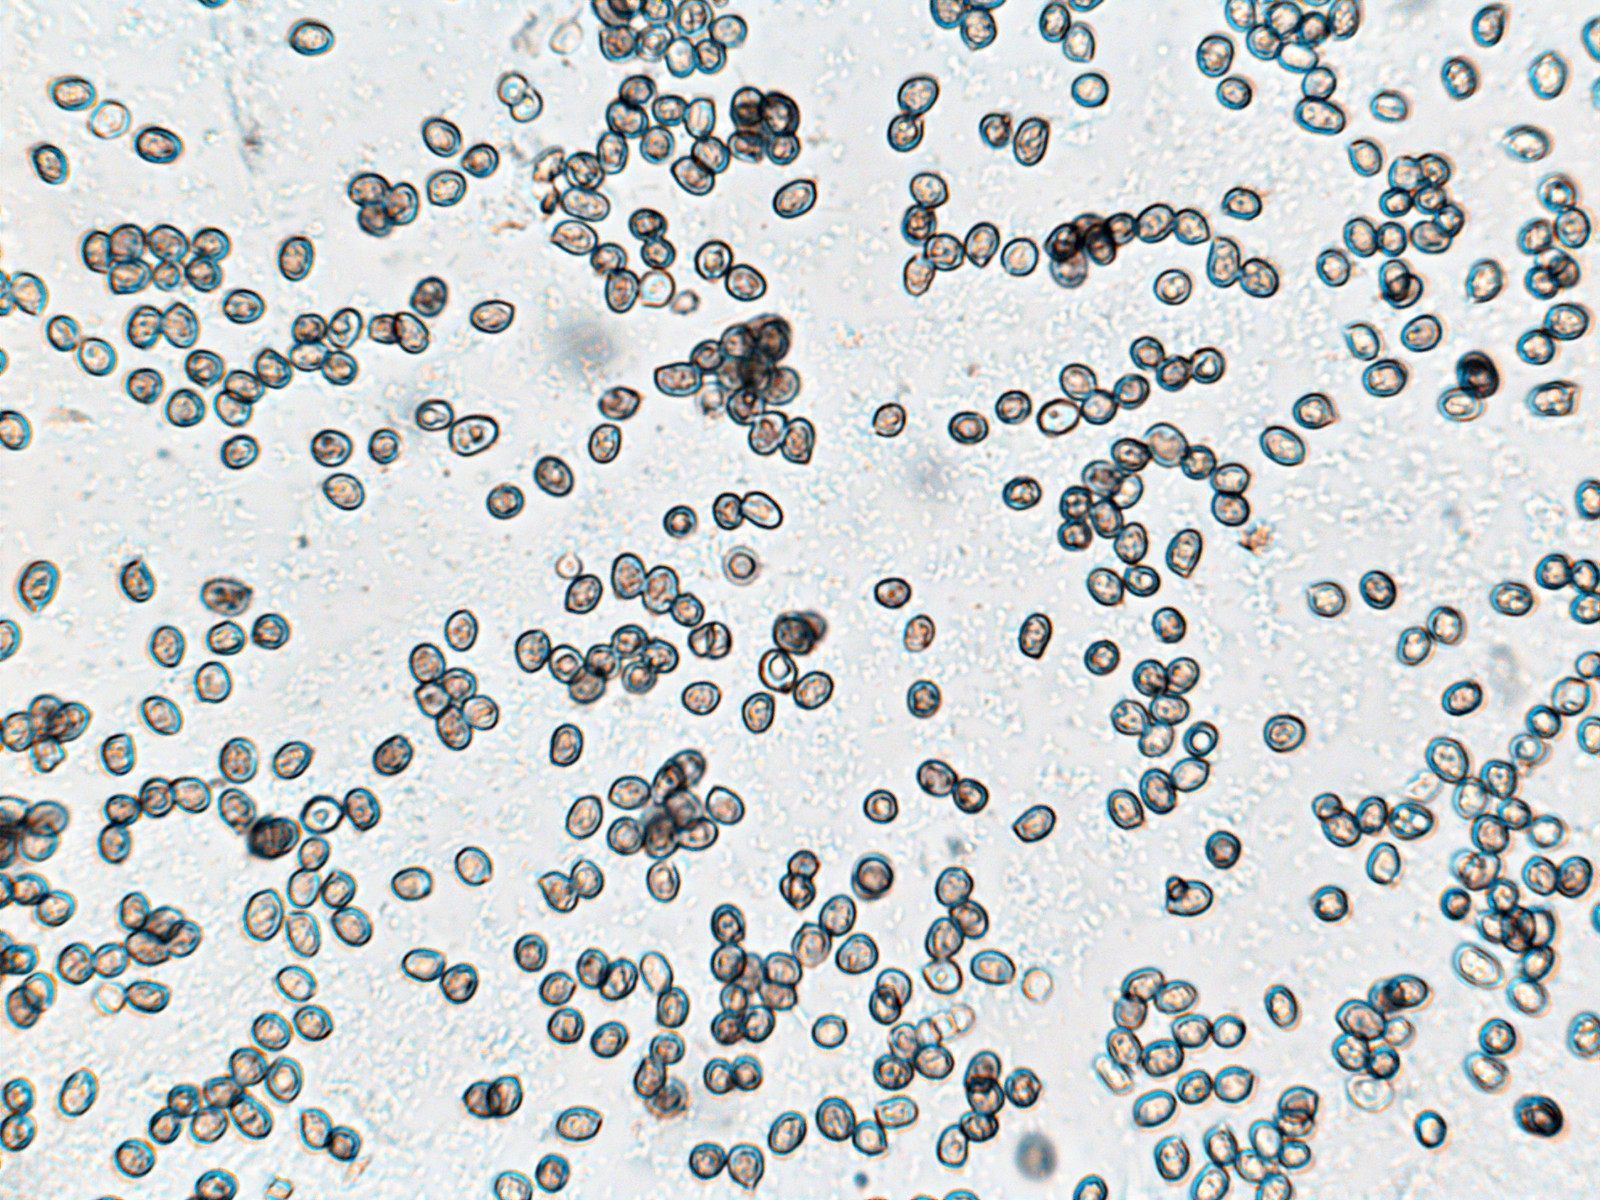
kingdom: Fungi
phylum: Basidiomycota
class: Agaricomycetes
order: Agaricales
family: Pluteaceae
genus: Pluteus
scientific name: Pluteus phlebophorus
